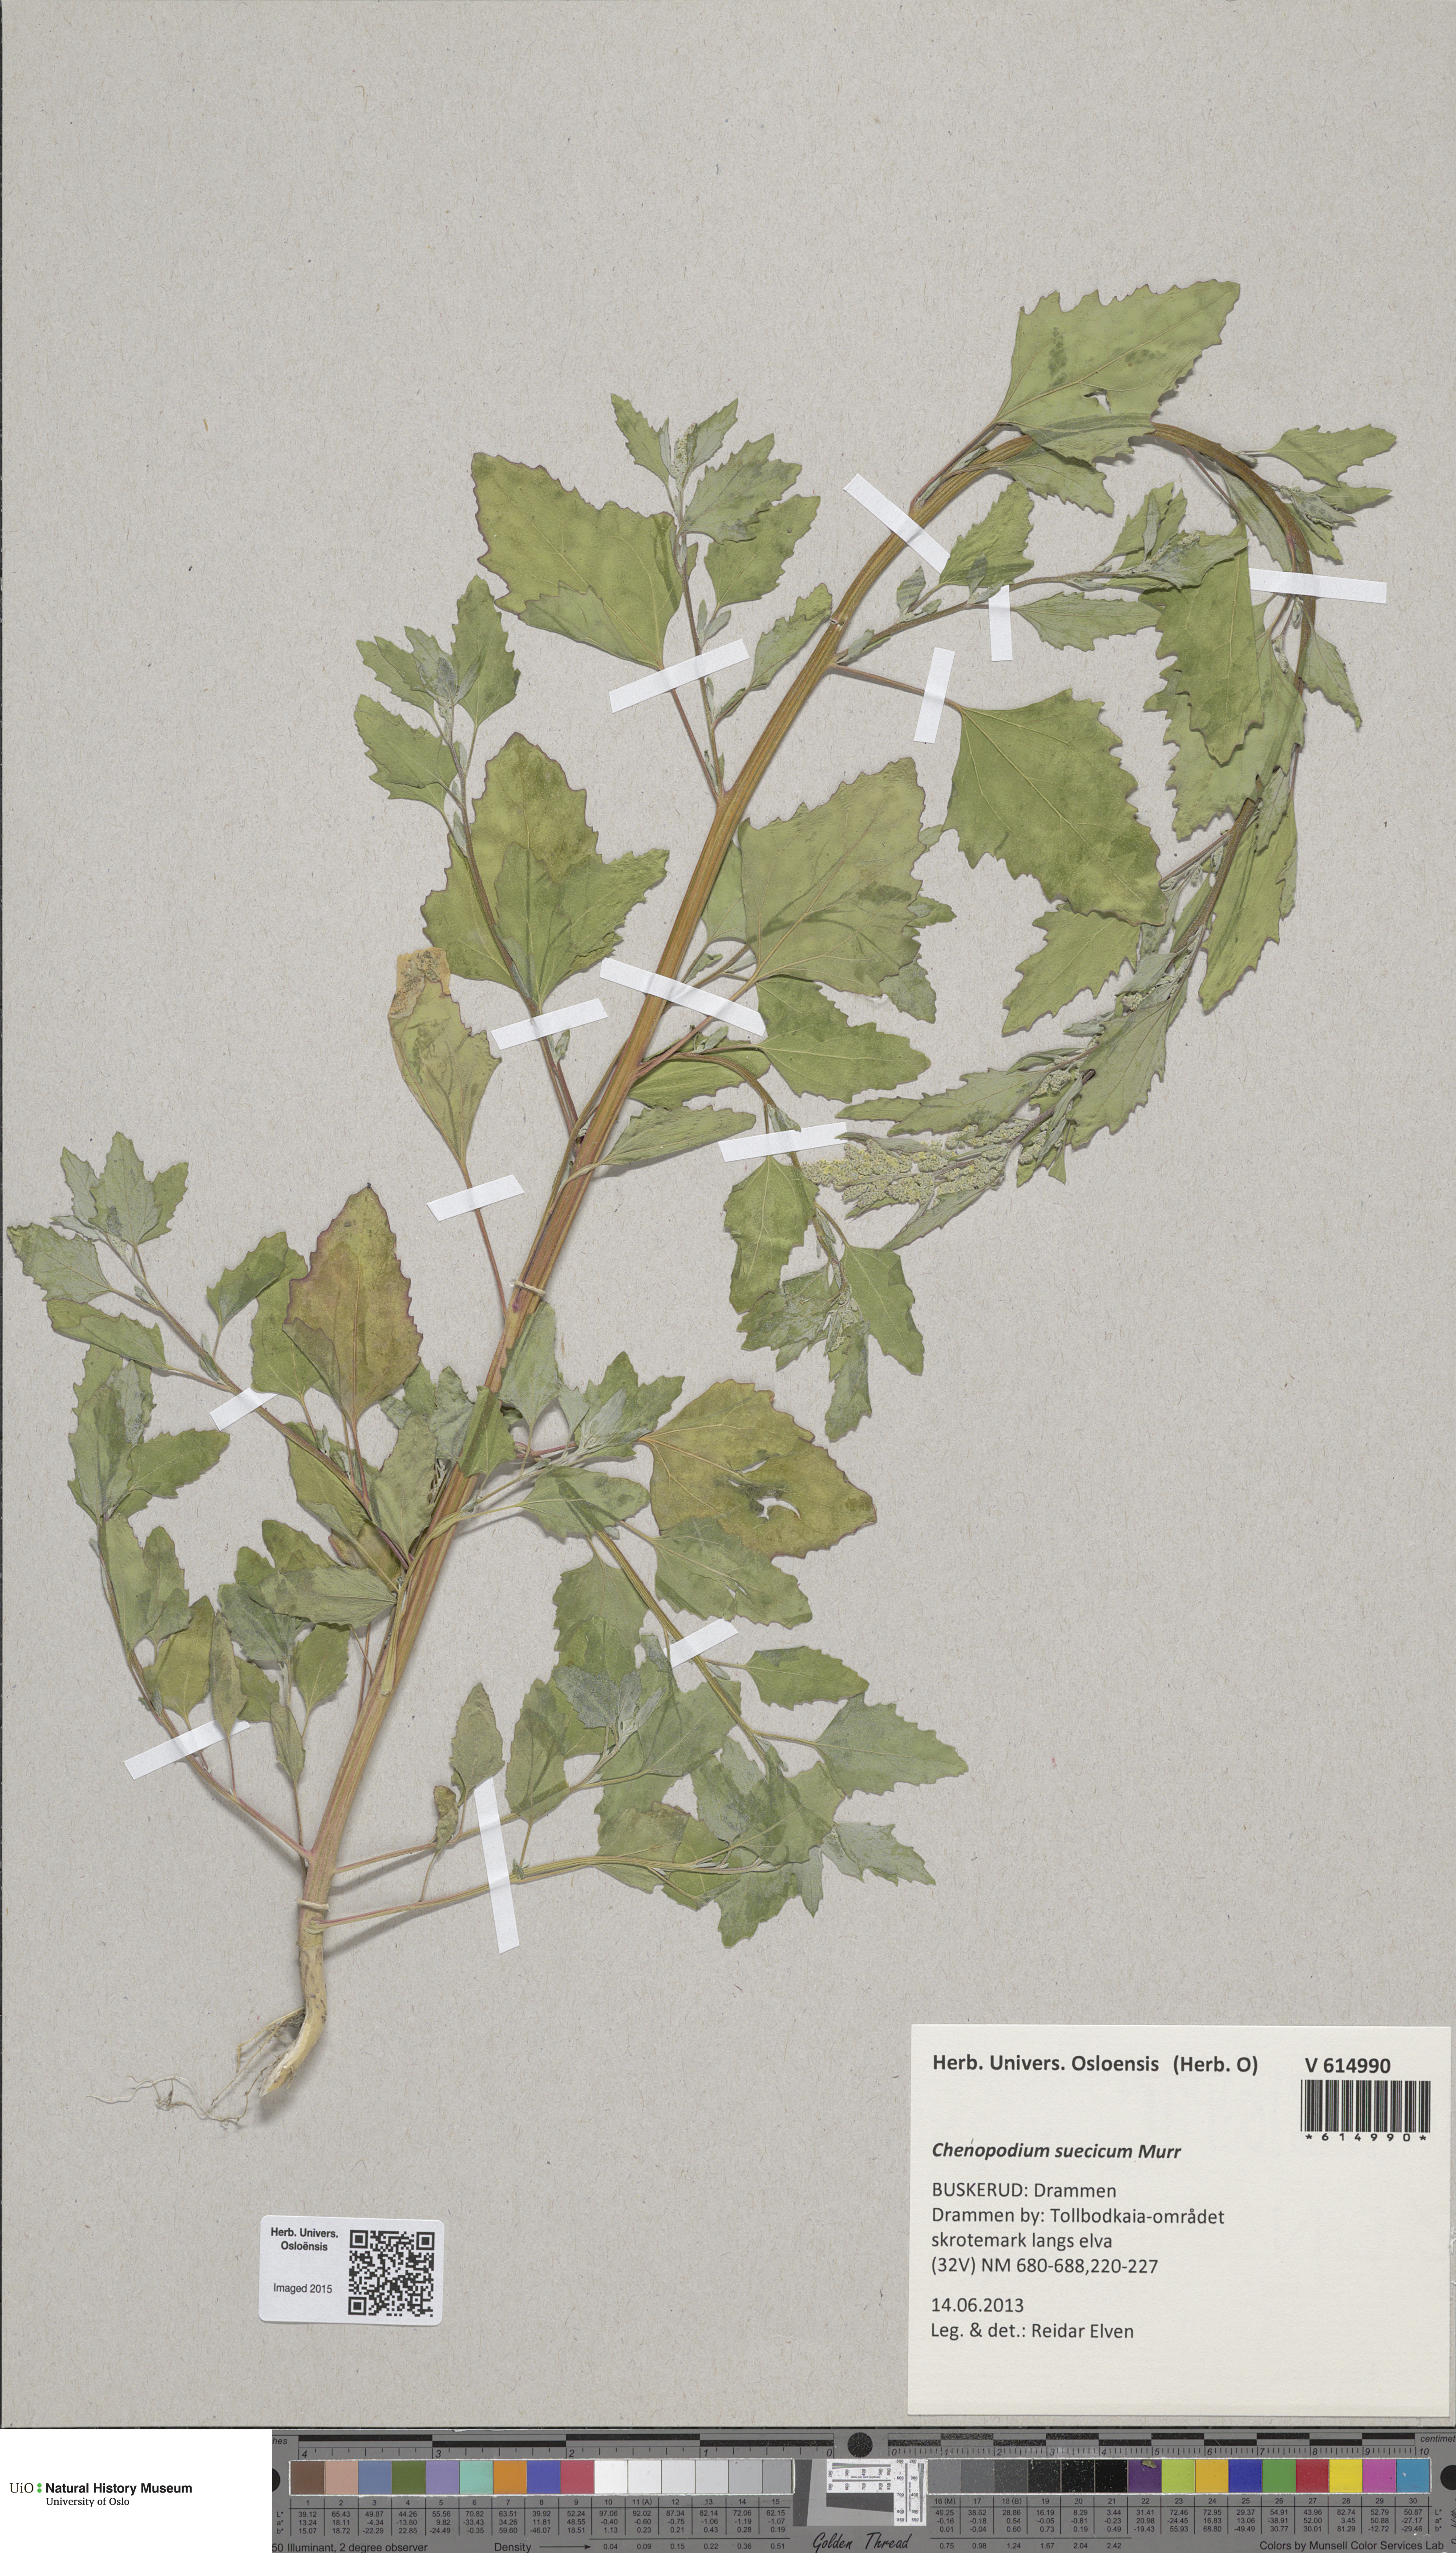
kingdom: Plantae
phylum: Tracheophyta
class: Magnoliopsida
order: Caryophyllales
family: Amaranthaceae
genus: Chenopodium
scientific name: Chenopodium suecicum
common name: Swedish goosefoot
